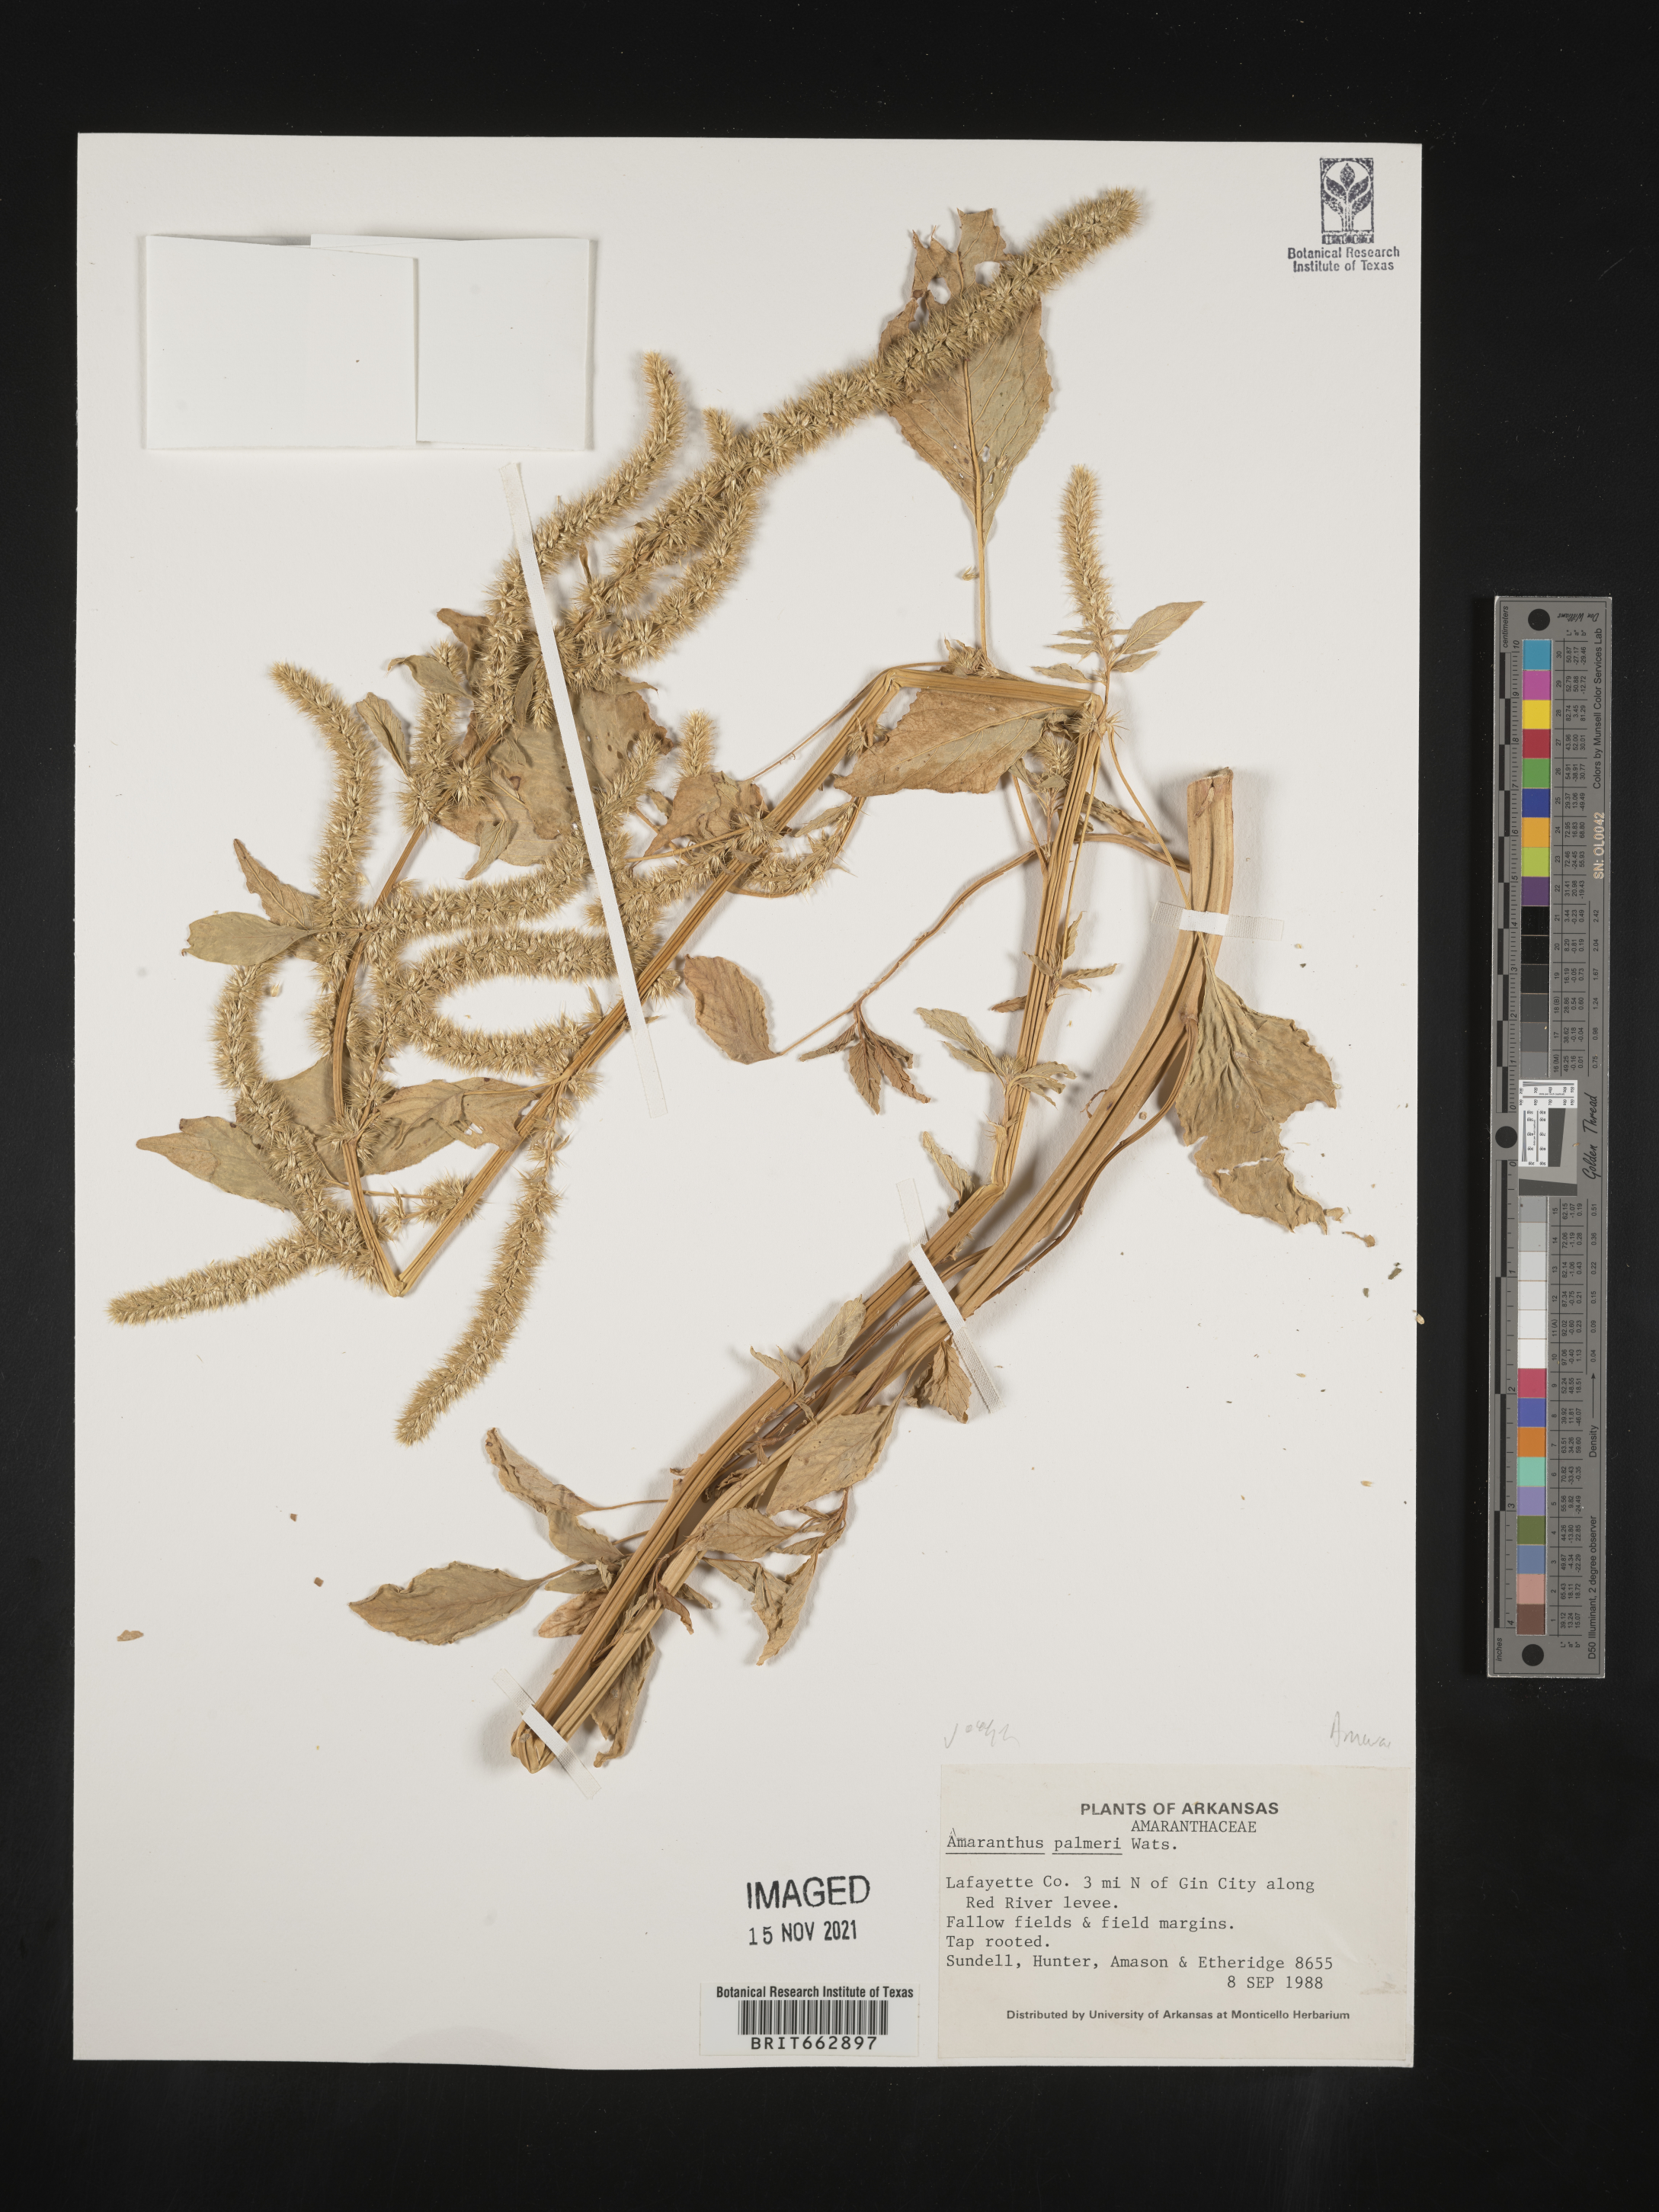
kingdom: Plantae
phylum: Tracheophyta
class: Magnoliopsida
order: Caryophyllales
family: Amaranthaceae
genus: Amaranthus
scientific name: Amaranthus palmeri
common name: Dioecious amaranth
